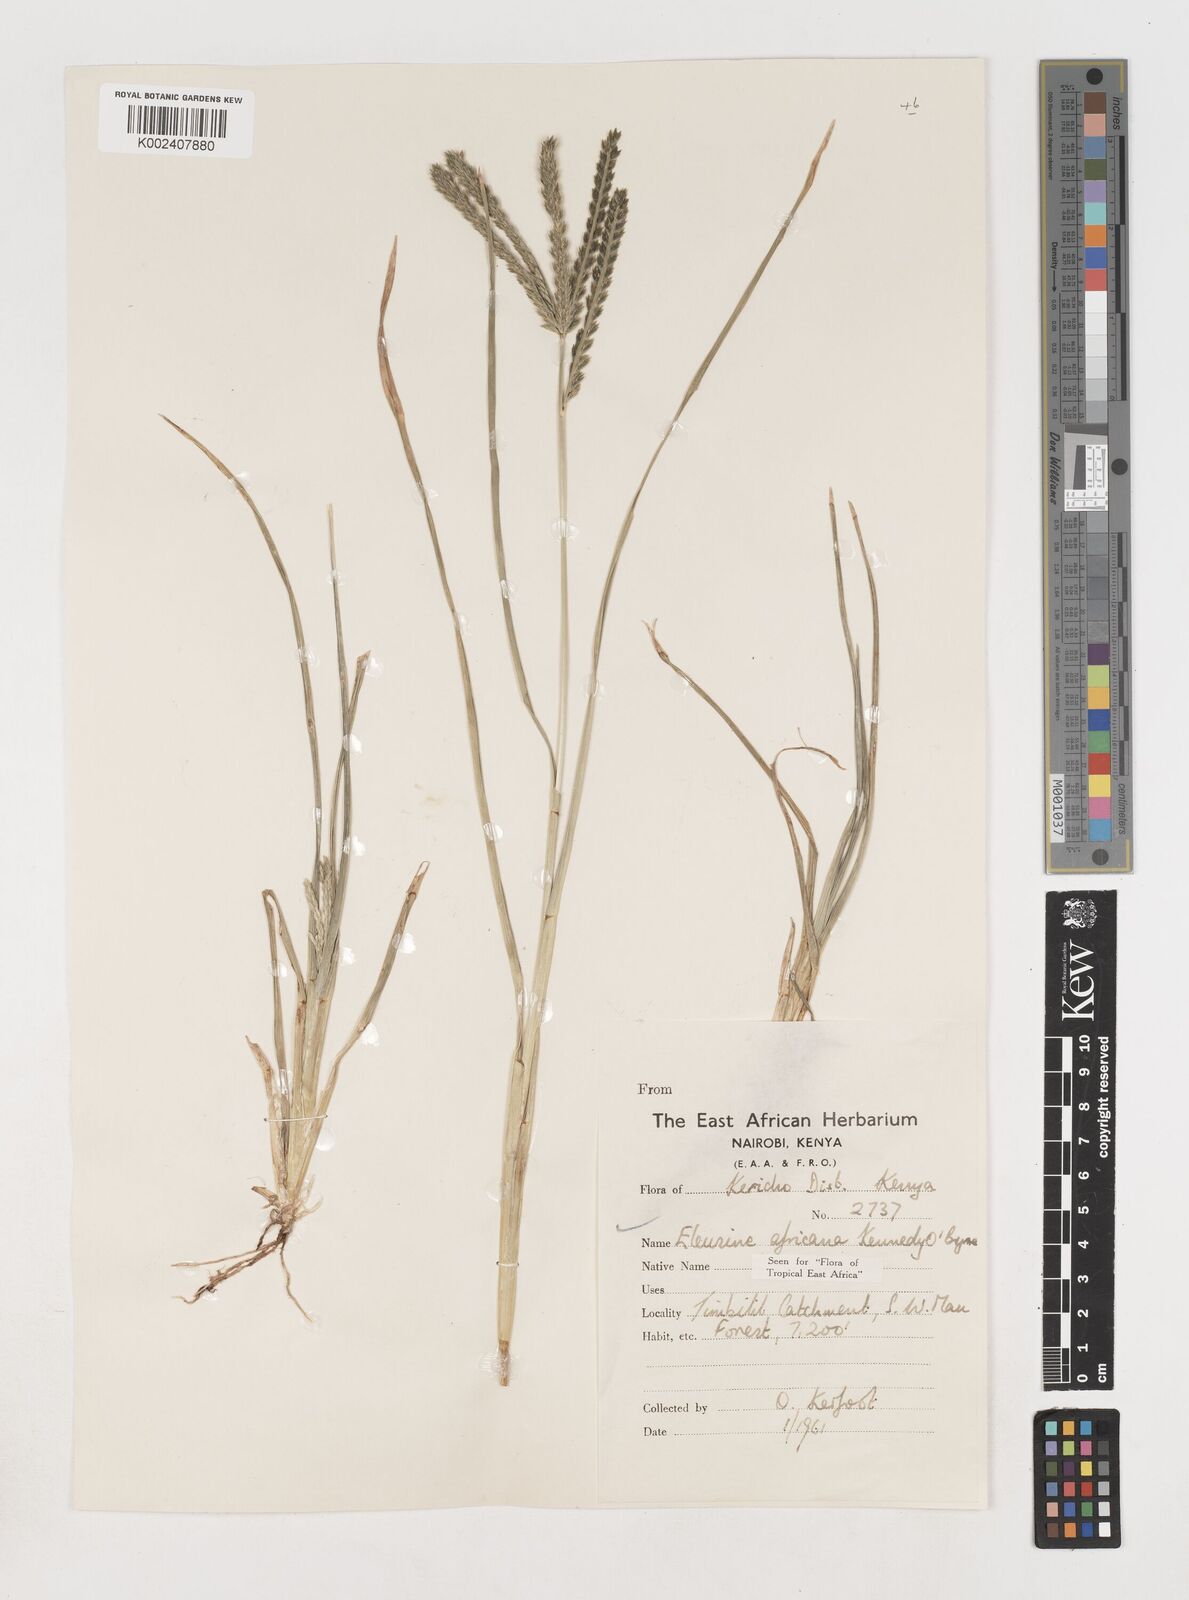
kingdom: Plantae
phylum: Tracheophyta
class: Liliopsida
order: Poales
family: Poaceae
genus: Eleusine
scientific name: Eleusine africana
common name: Wild african finger millet
